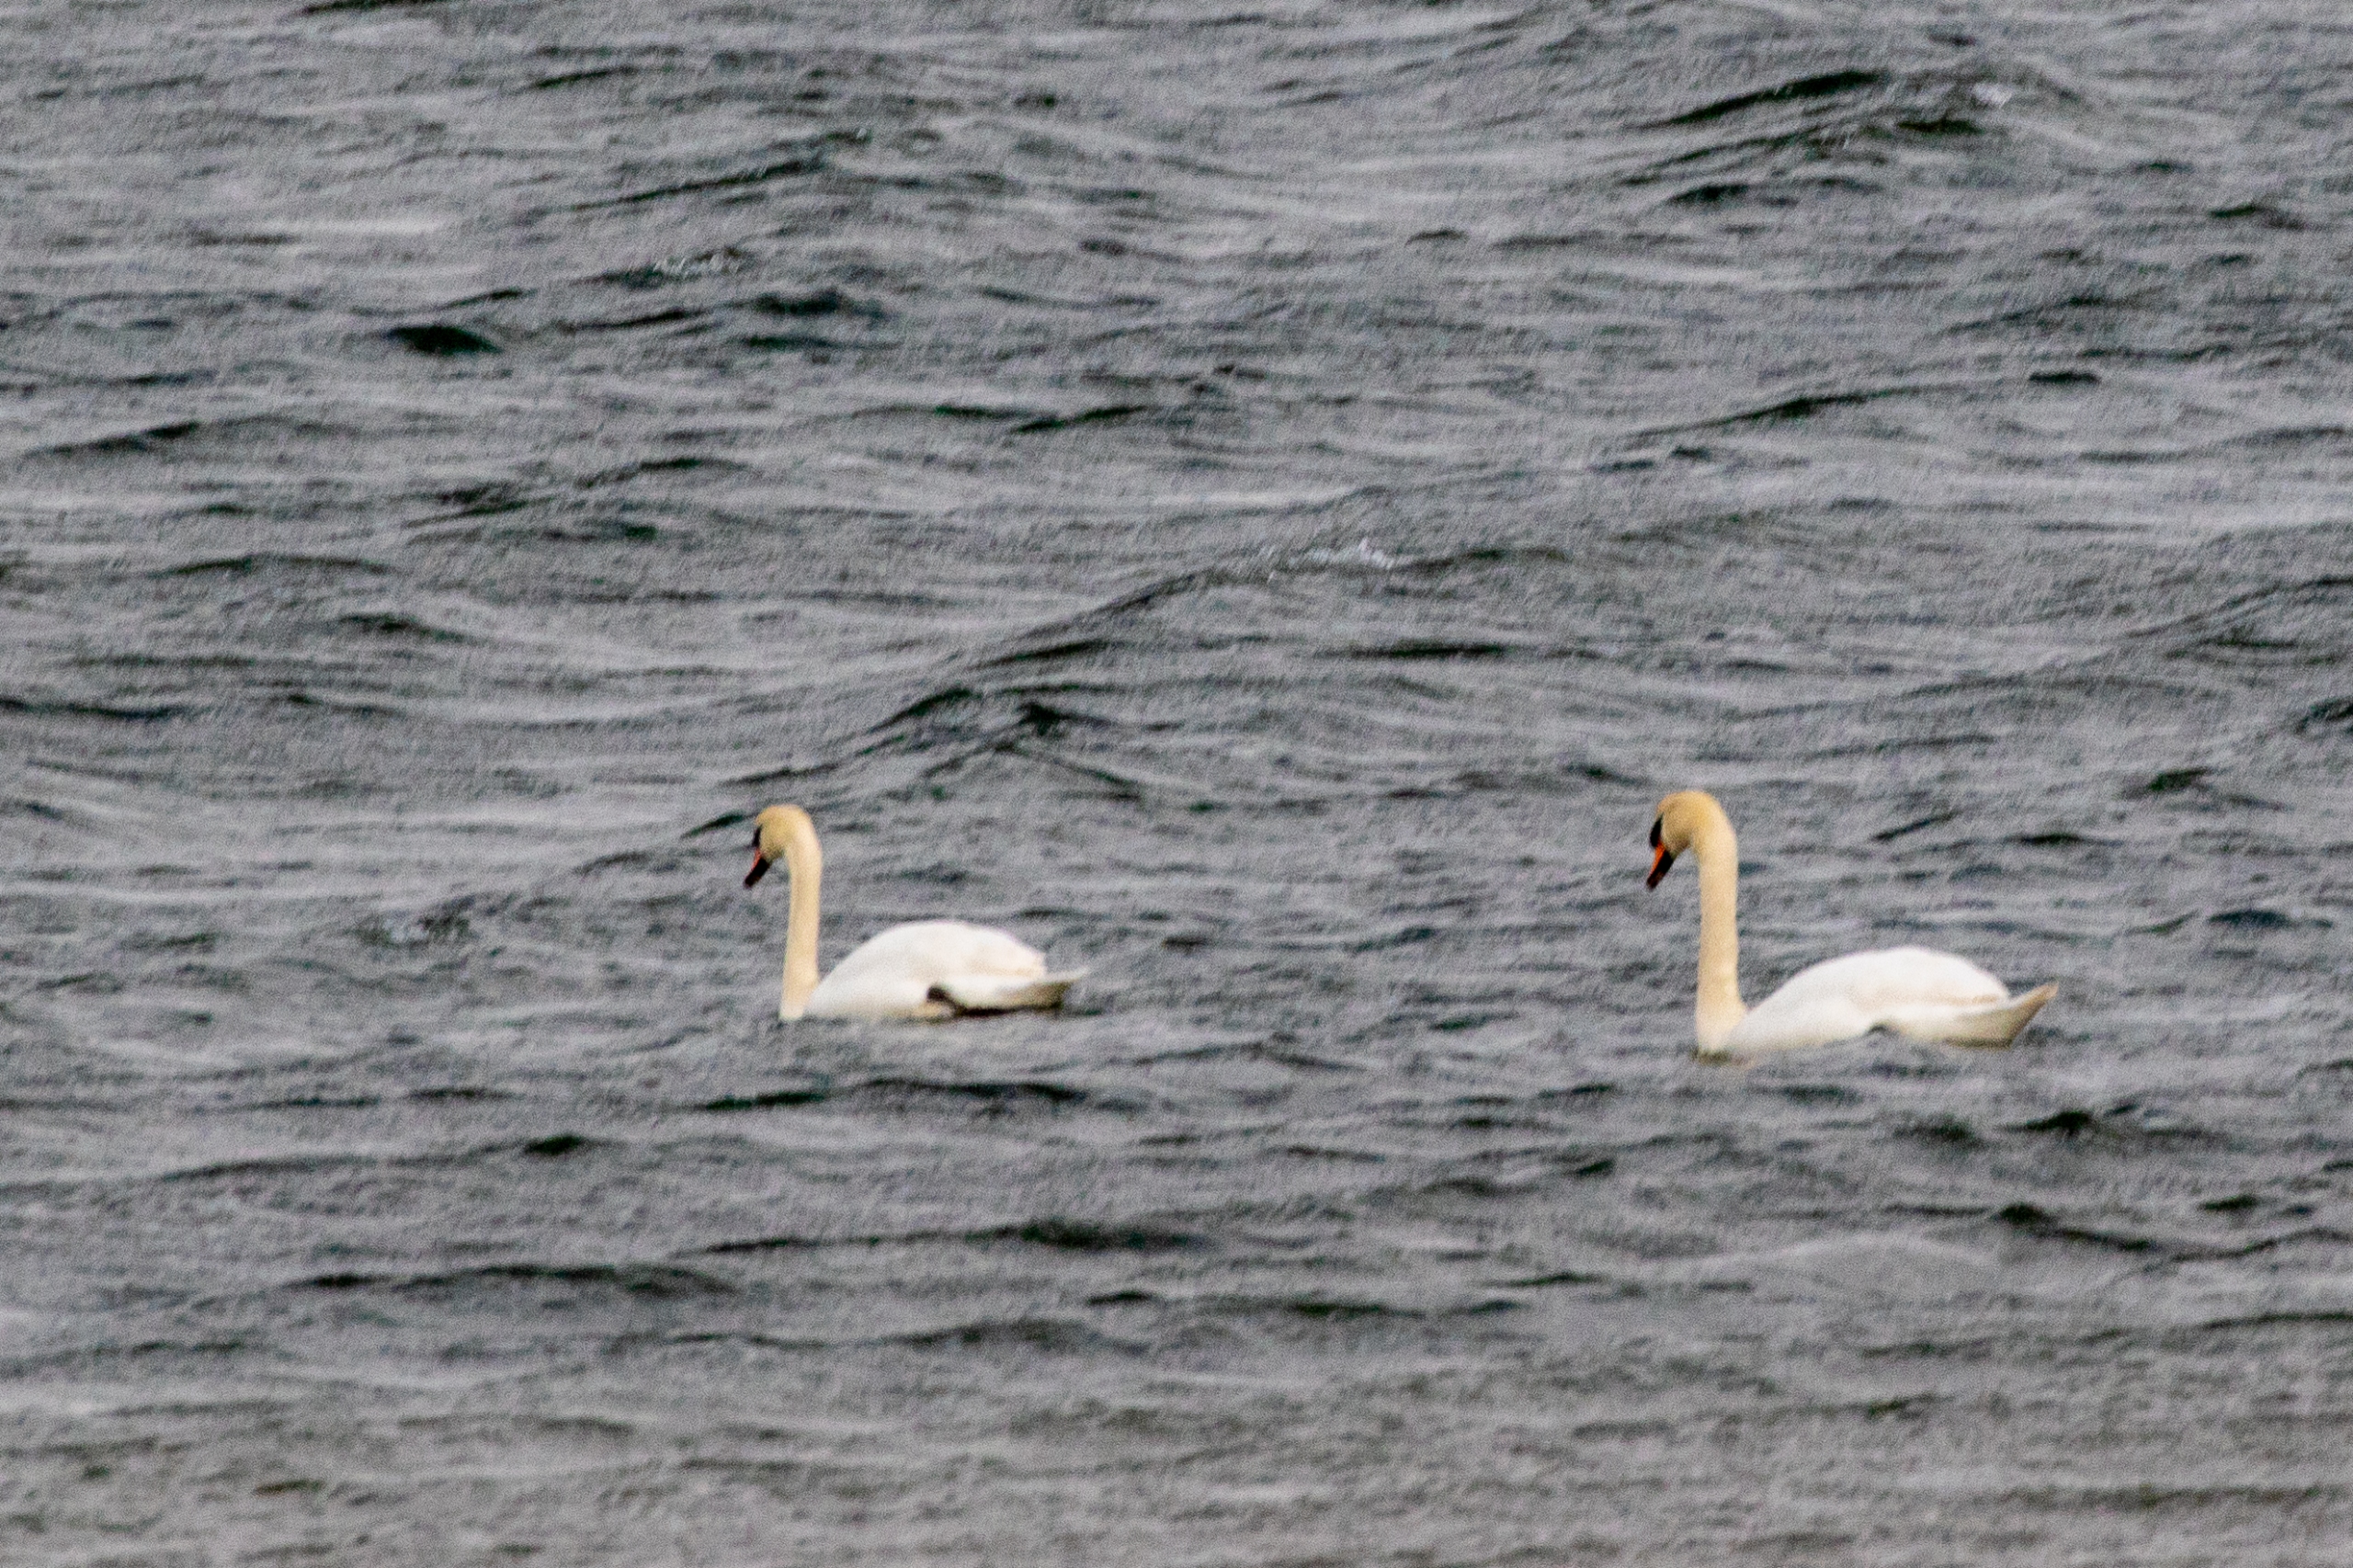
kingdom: Animalia
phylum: Chordata
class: Aves
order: Anseriformes
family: Anatidae
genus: Cygnus
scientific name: Cygnus olor
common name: Knopsvane
